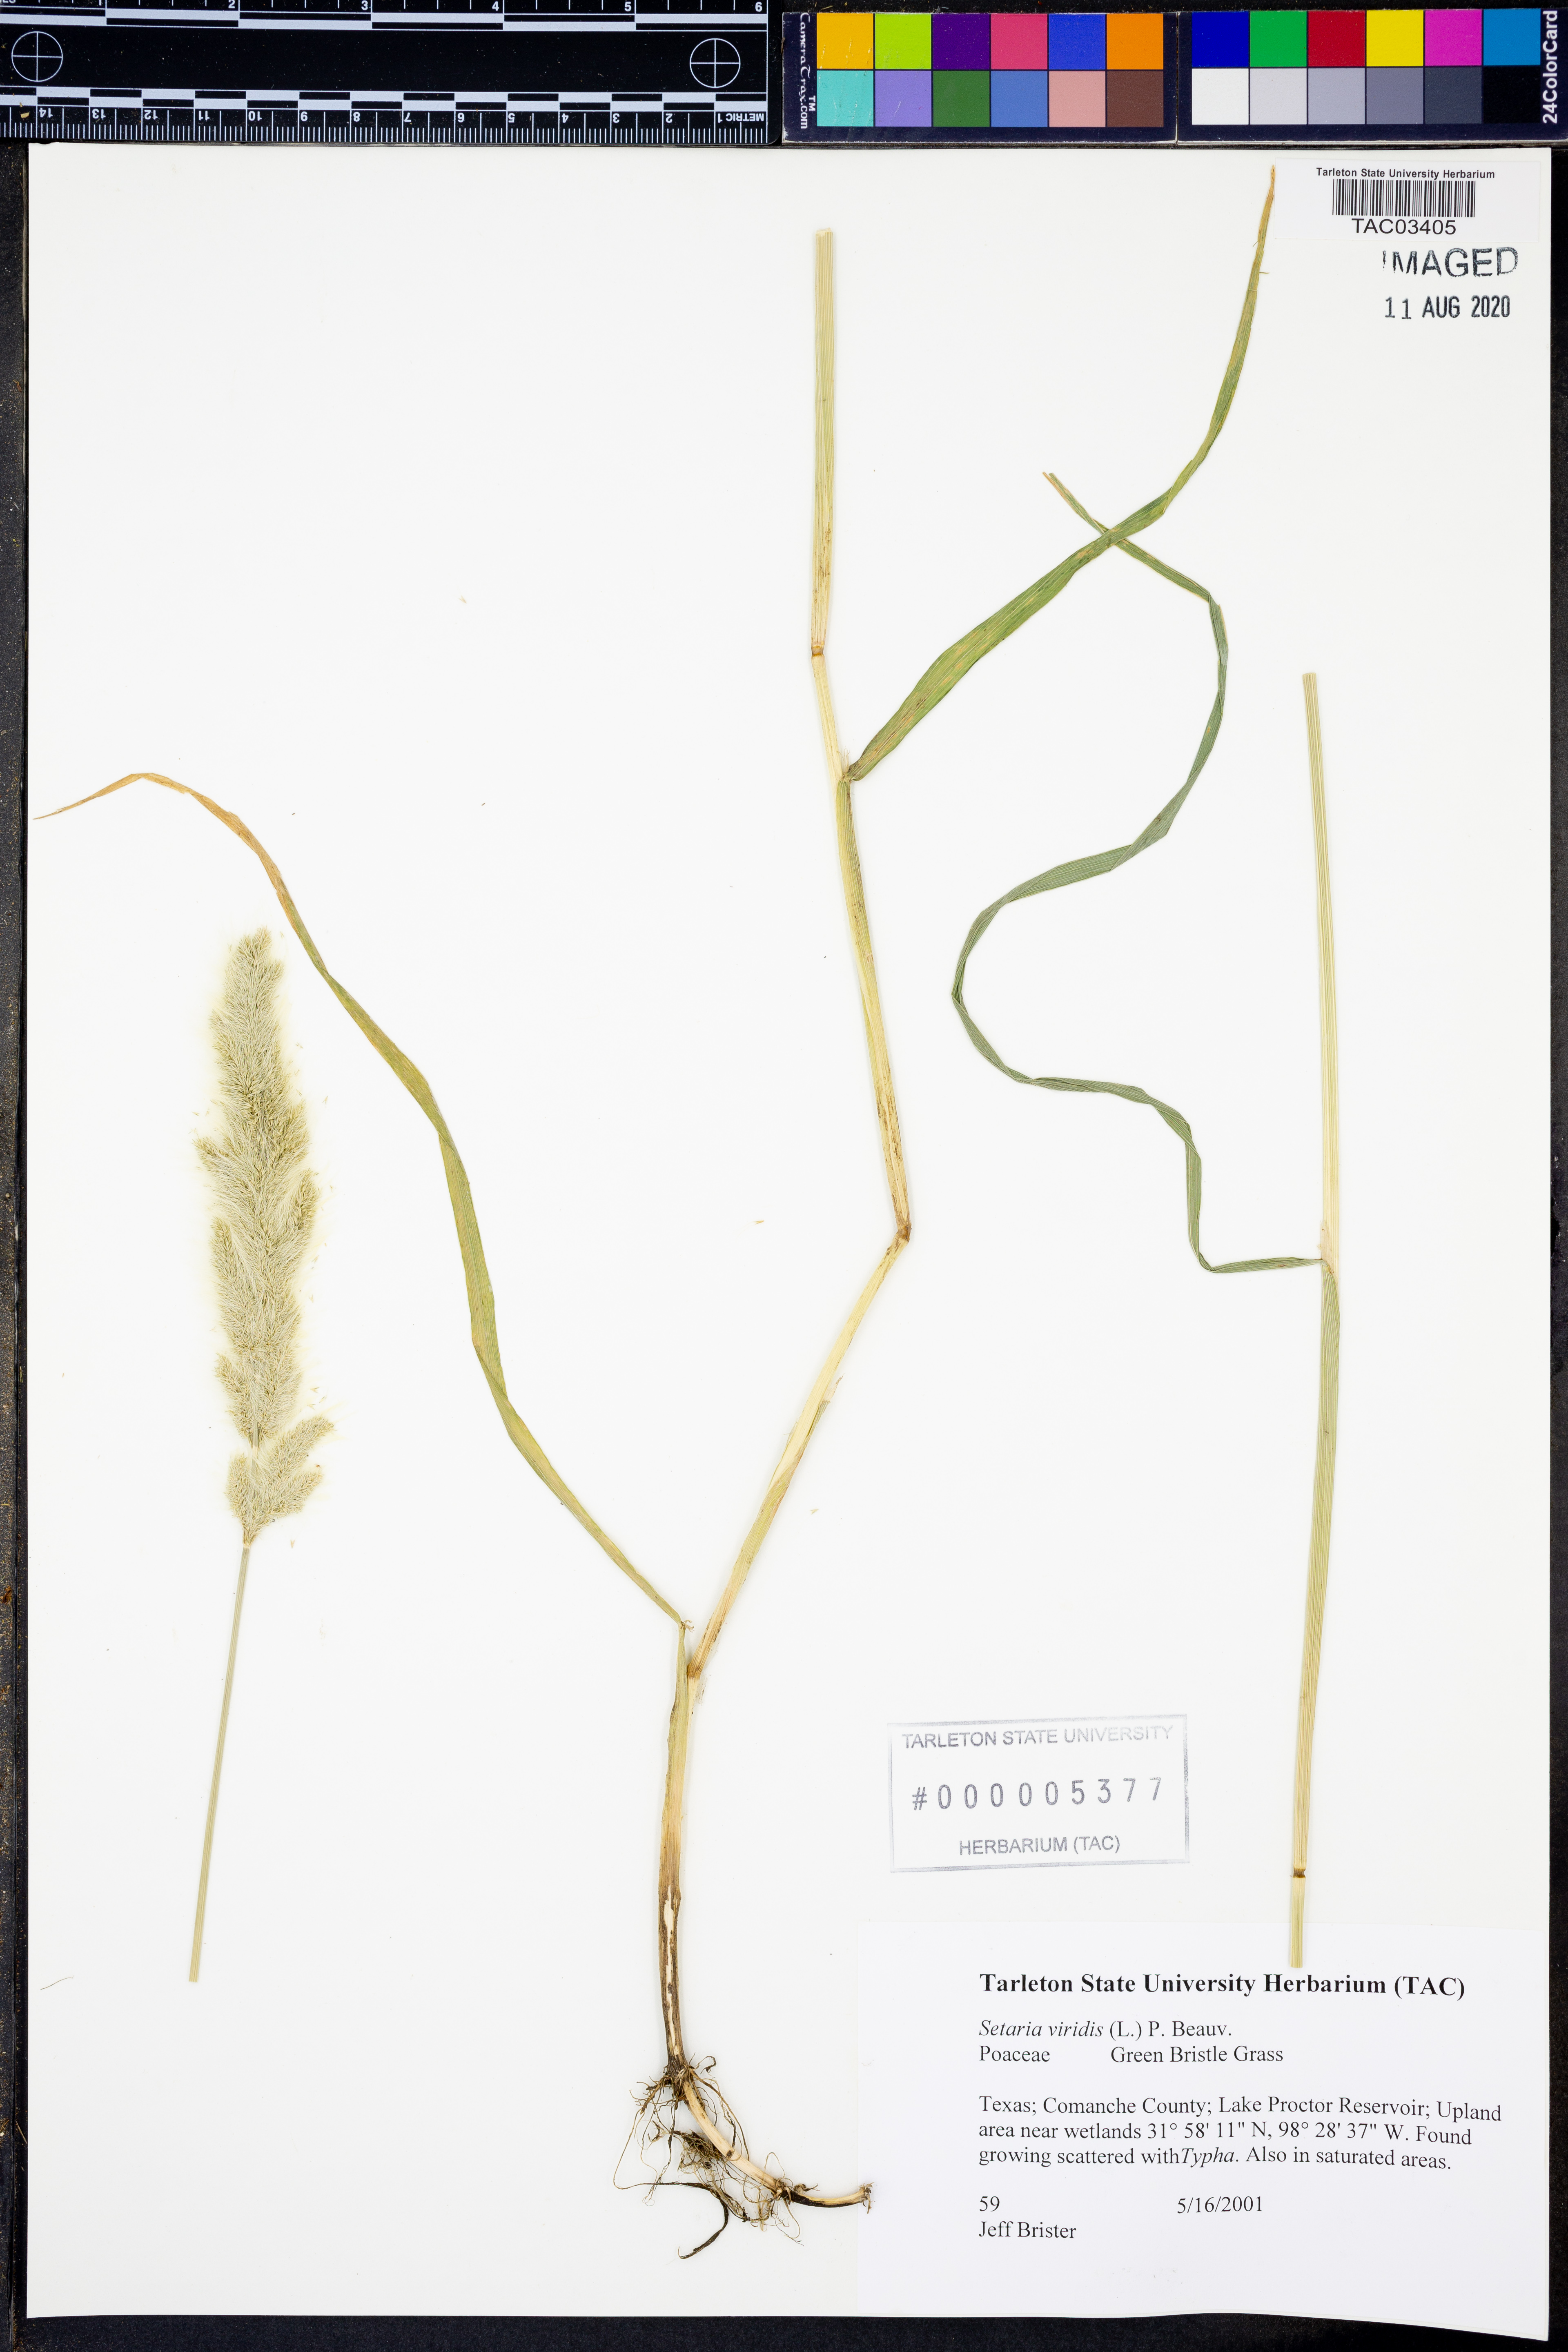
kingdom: Plantae
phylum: Tracheophyta
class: Liliopsida
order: Poales
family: Poaceae
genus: Setaria
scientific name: Setaria viridis
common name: Green bristlegrass
